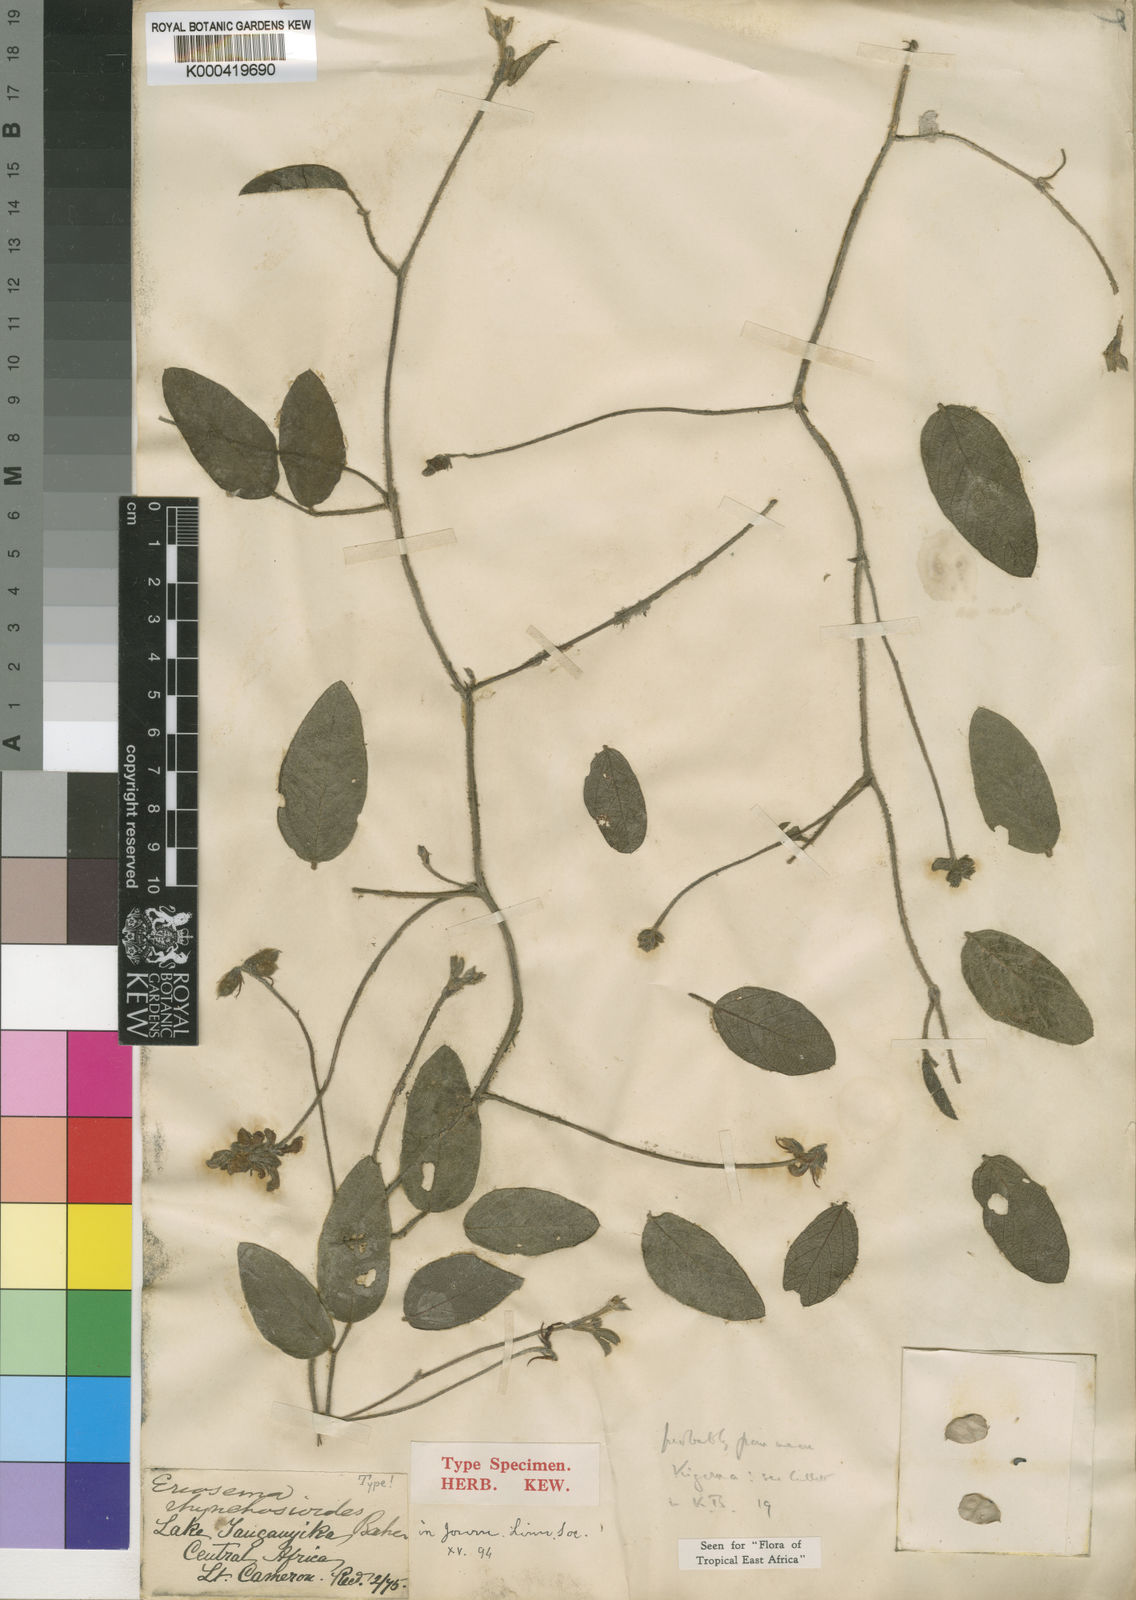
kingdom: Plantae
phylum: Tracheophyta
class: Magnoliopsida
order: Fabales
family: Fabaceae
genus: Eriosema
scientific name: Eriosema rhynchosioides
